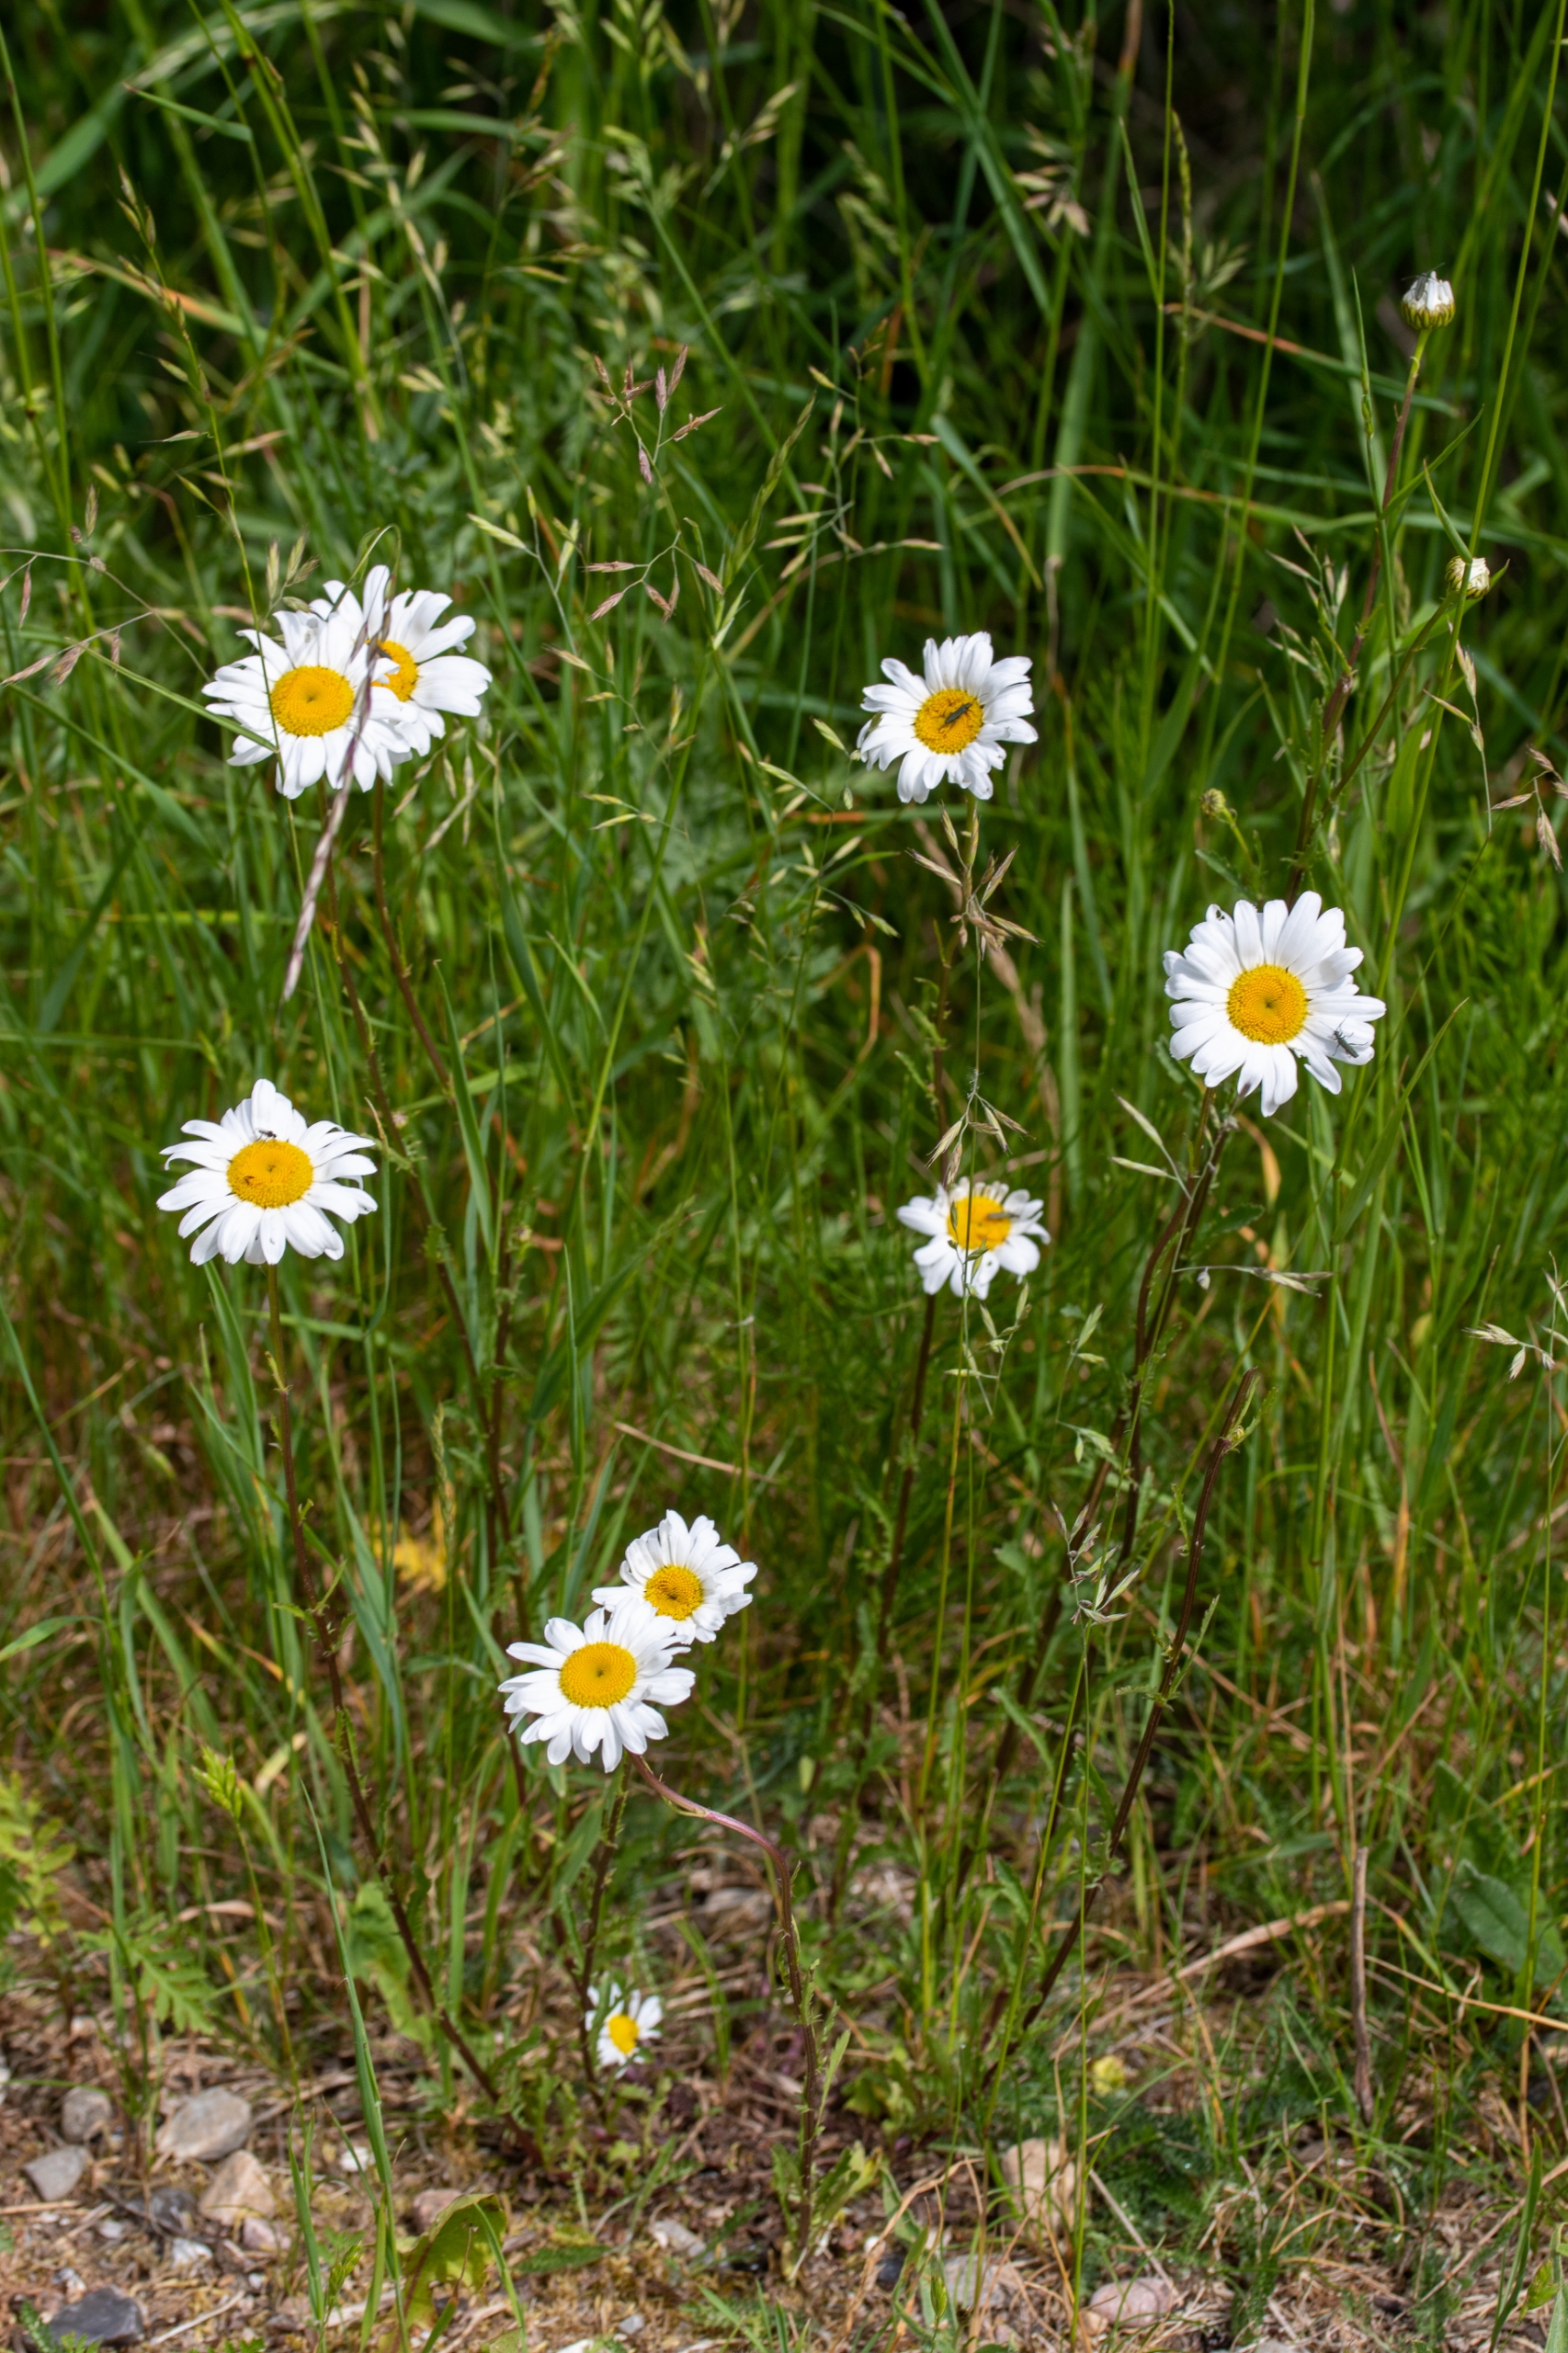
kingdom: Plantae
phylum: Tracheophyta
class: Magnoliopsida
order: Asterales
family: Asteraceae
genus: Leucanthemum
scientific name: Leucanthemum vulgare
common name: Hvid okseøje
